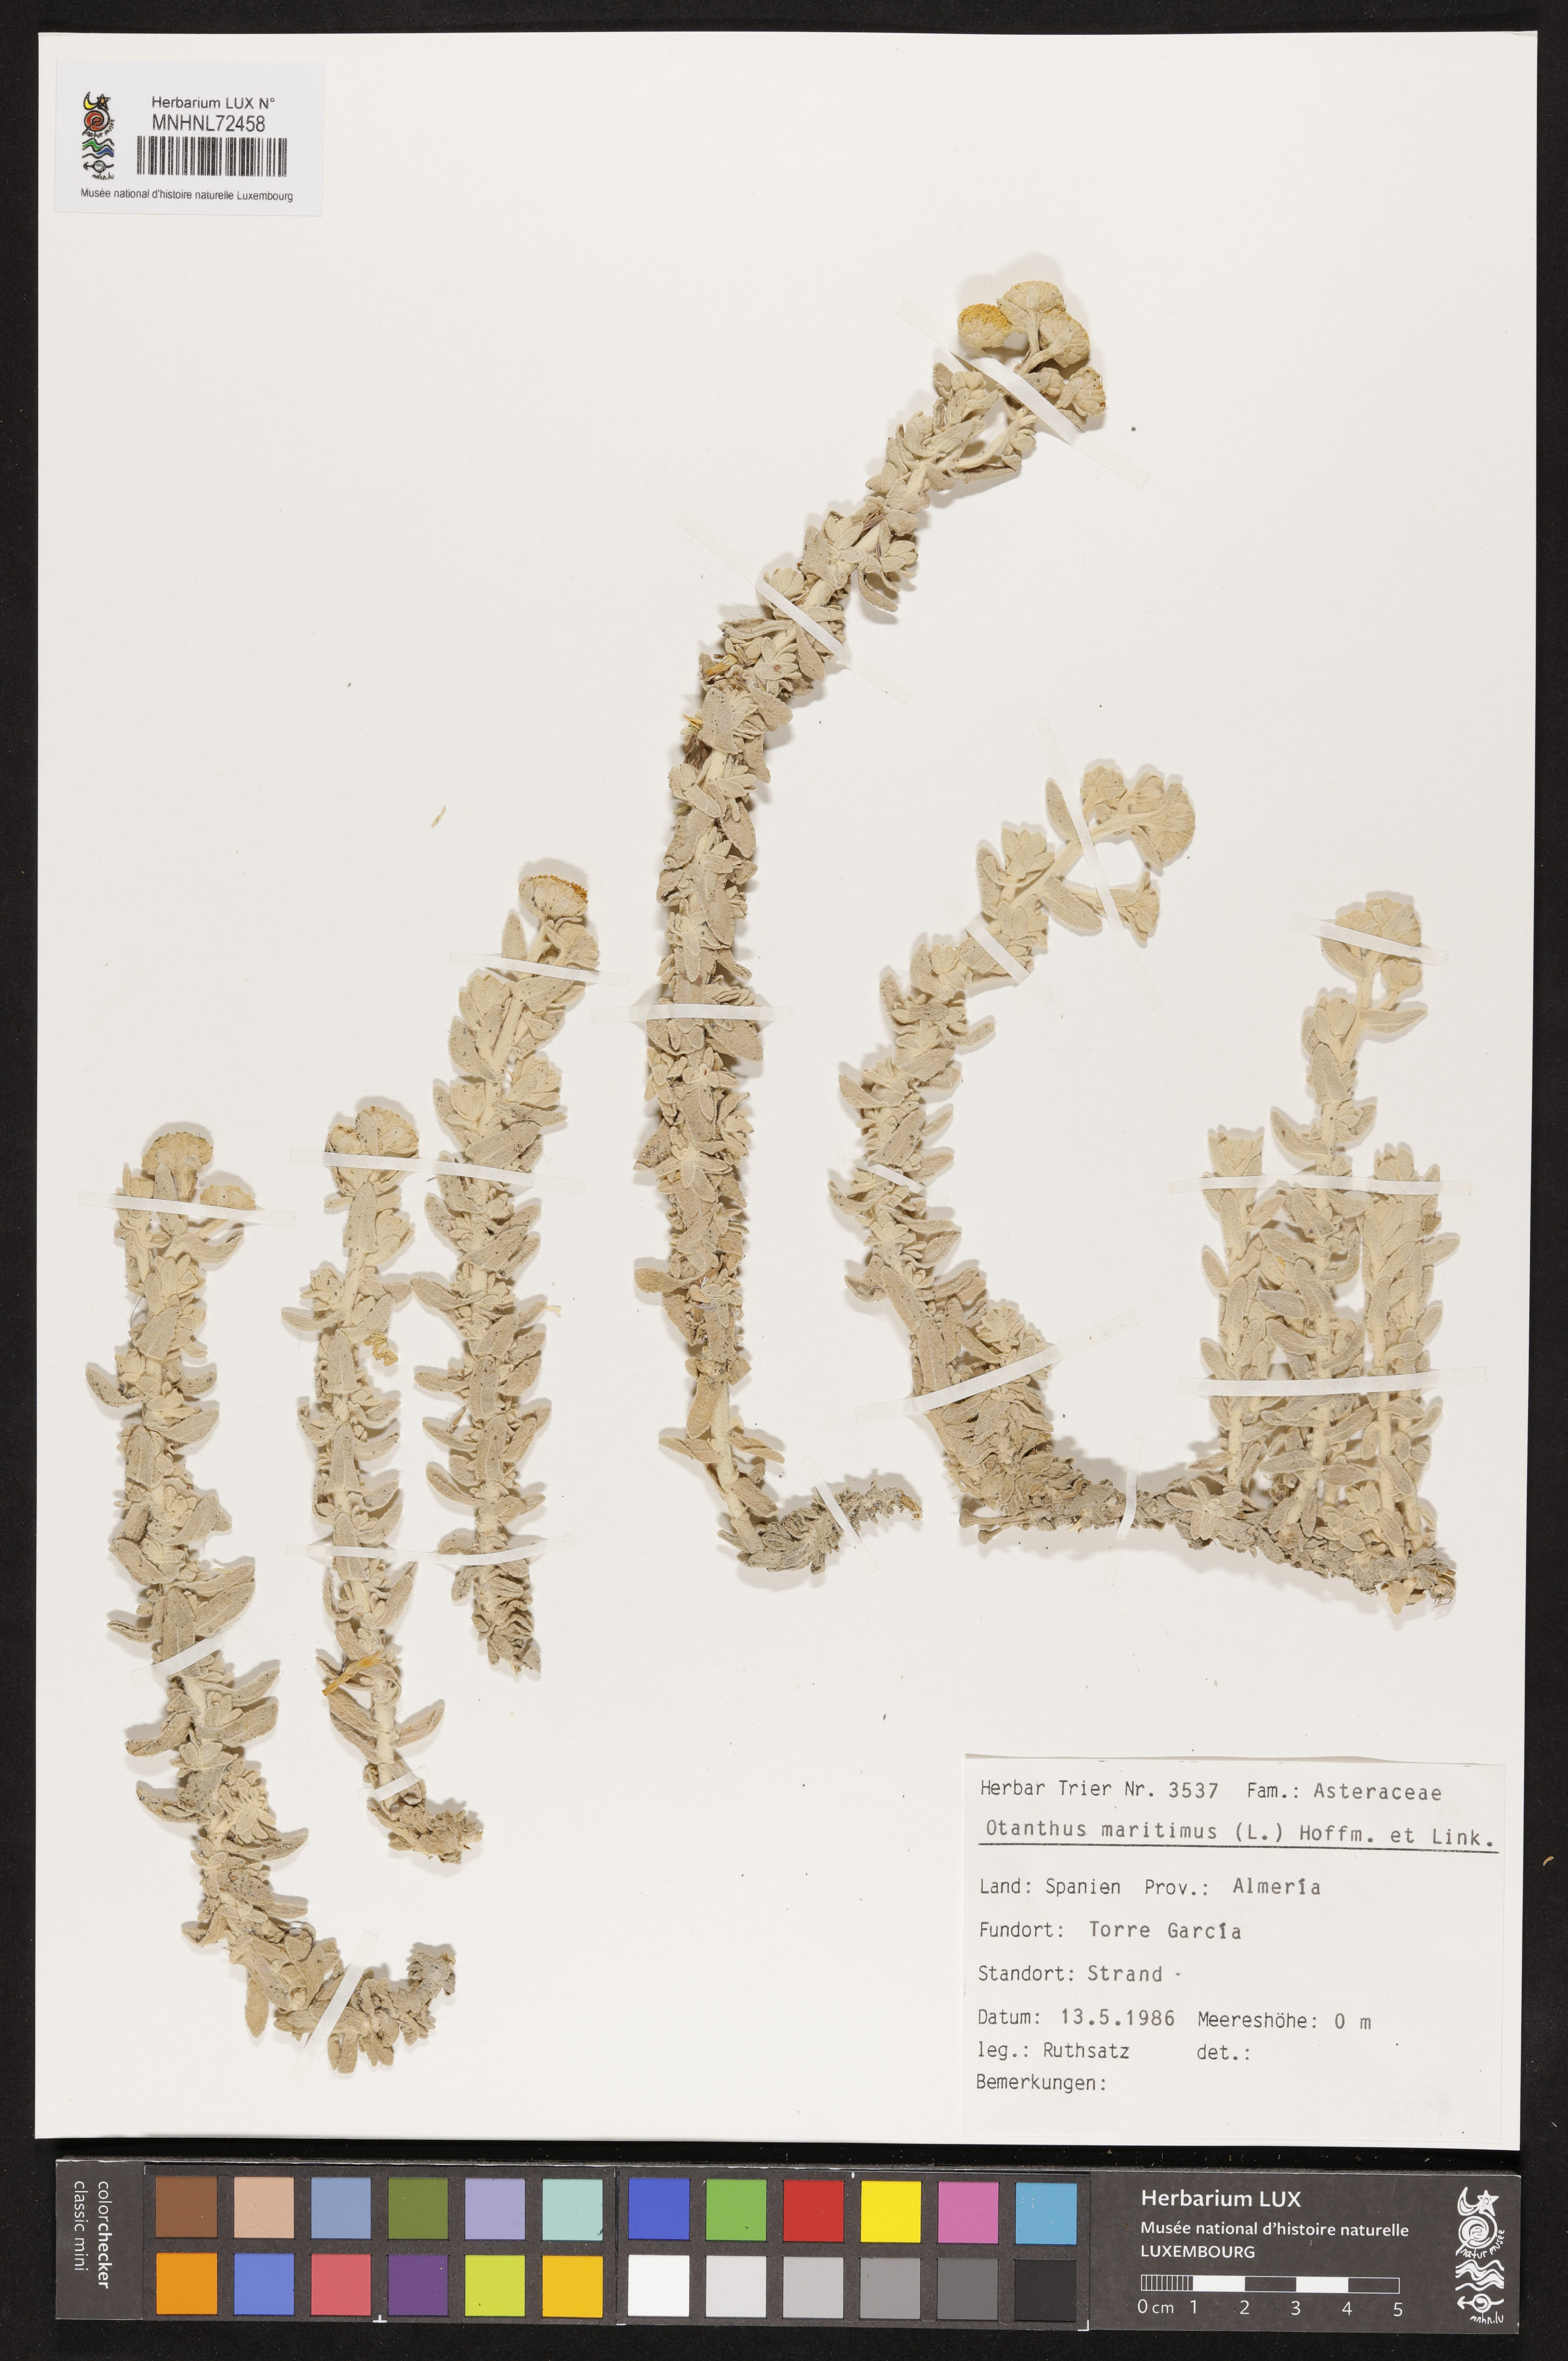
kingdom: Plantae
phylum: Tracheophyta
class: Magnoliopsida
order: Asterales
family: Asteraceae
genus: Achillea
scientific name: Achillea maritima
